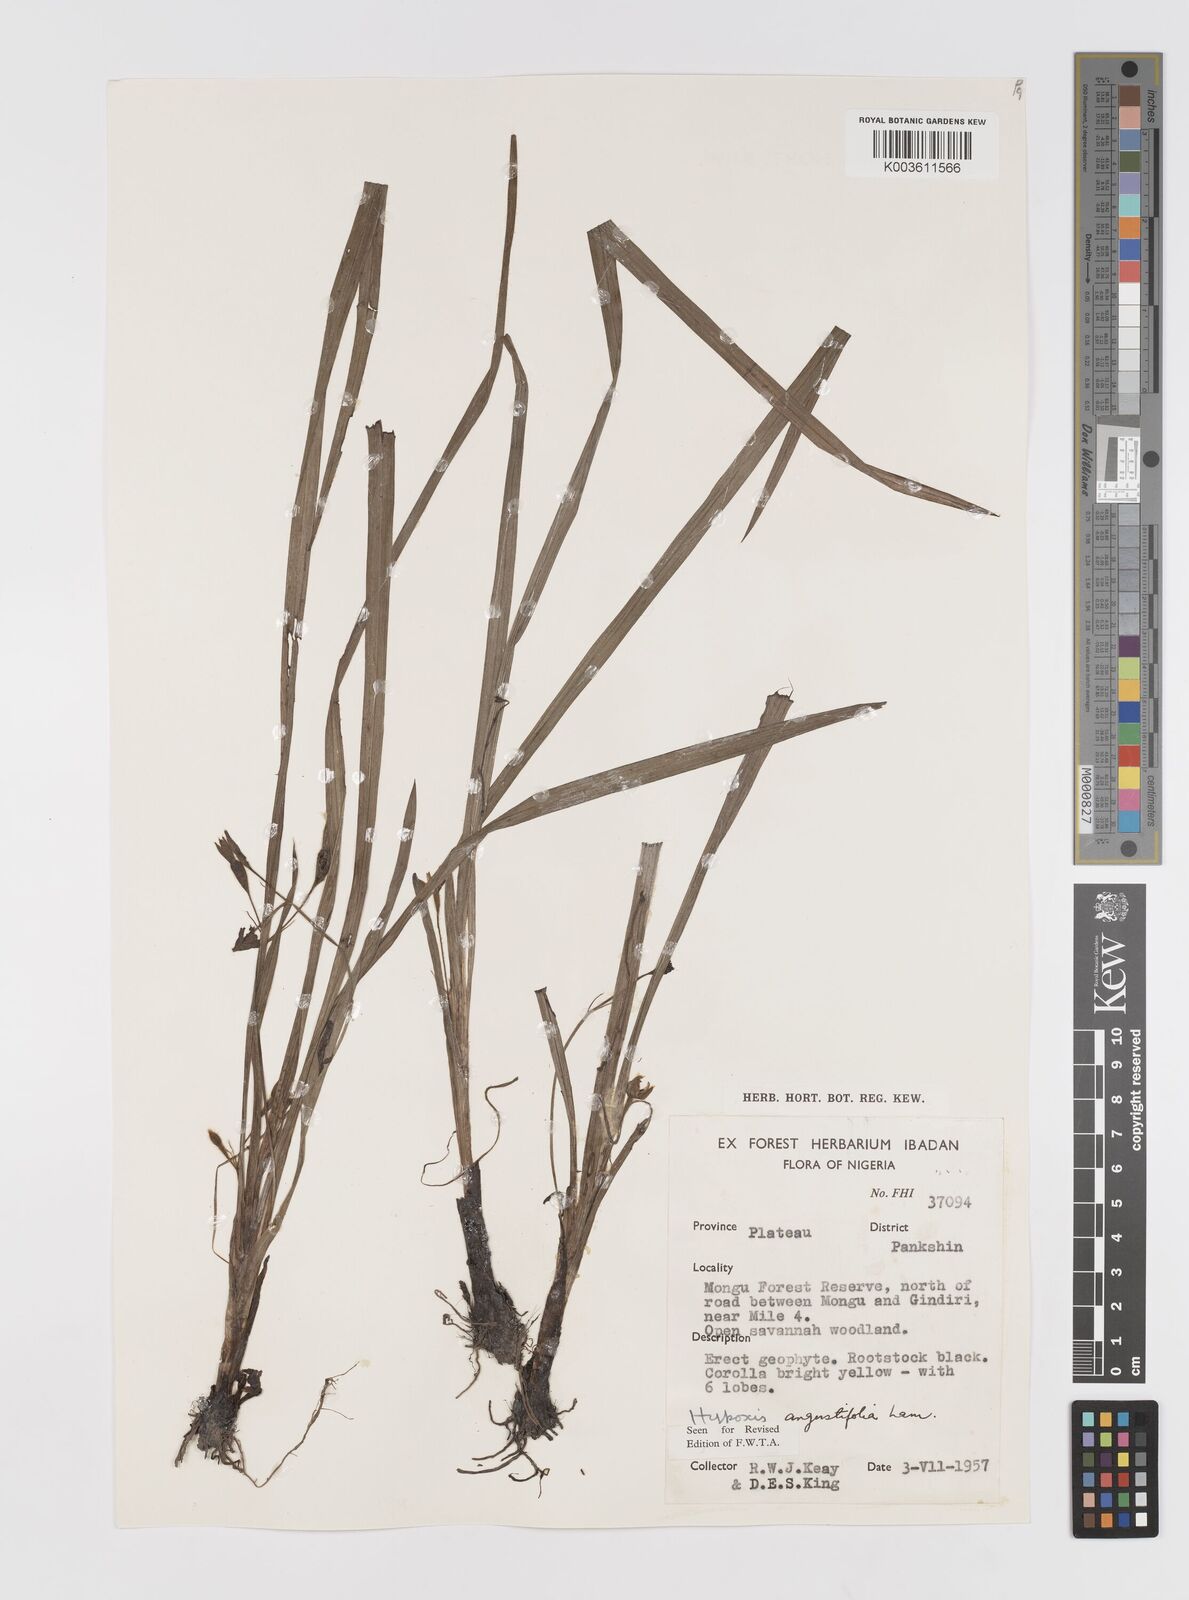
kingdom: Plantae
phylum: Tracheophyta
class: Liliopsida
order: Asparagales
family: Hypoxidaceae
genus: Hypoxis
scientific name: Hypoxis angustifolia
